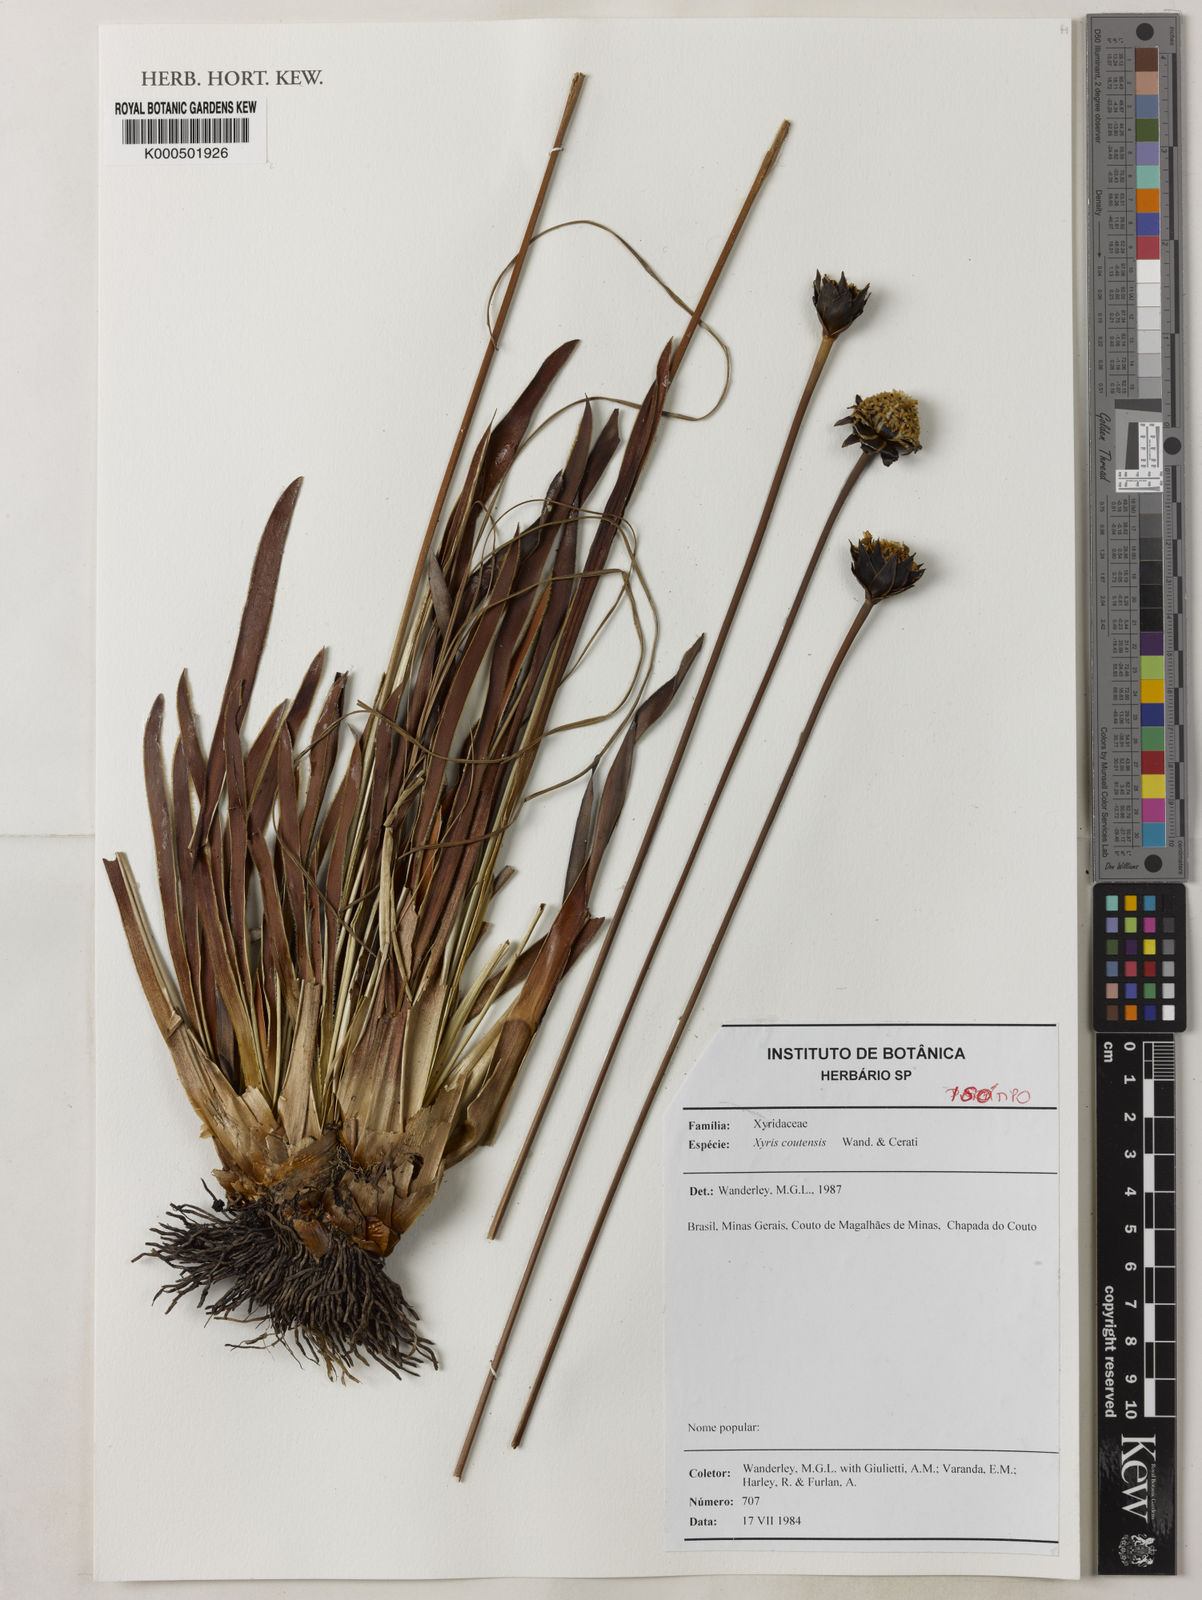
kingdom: Plantae
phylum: Tracheophyta
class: Liliopsida
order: Poales
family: Xyridaceae
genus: Xyris
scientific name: Xyris coutensis
